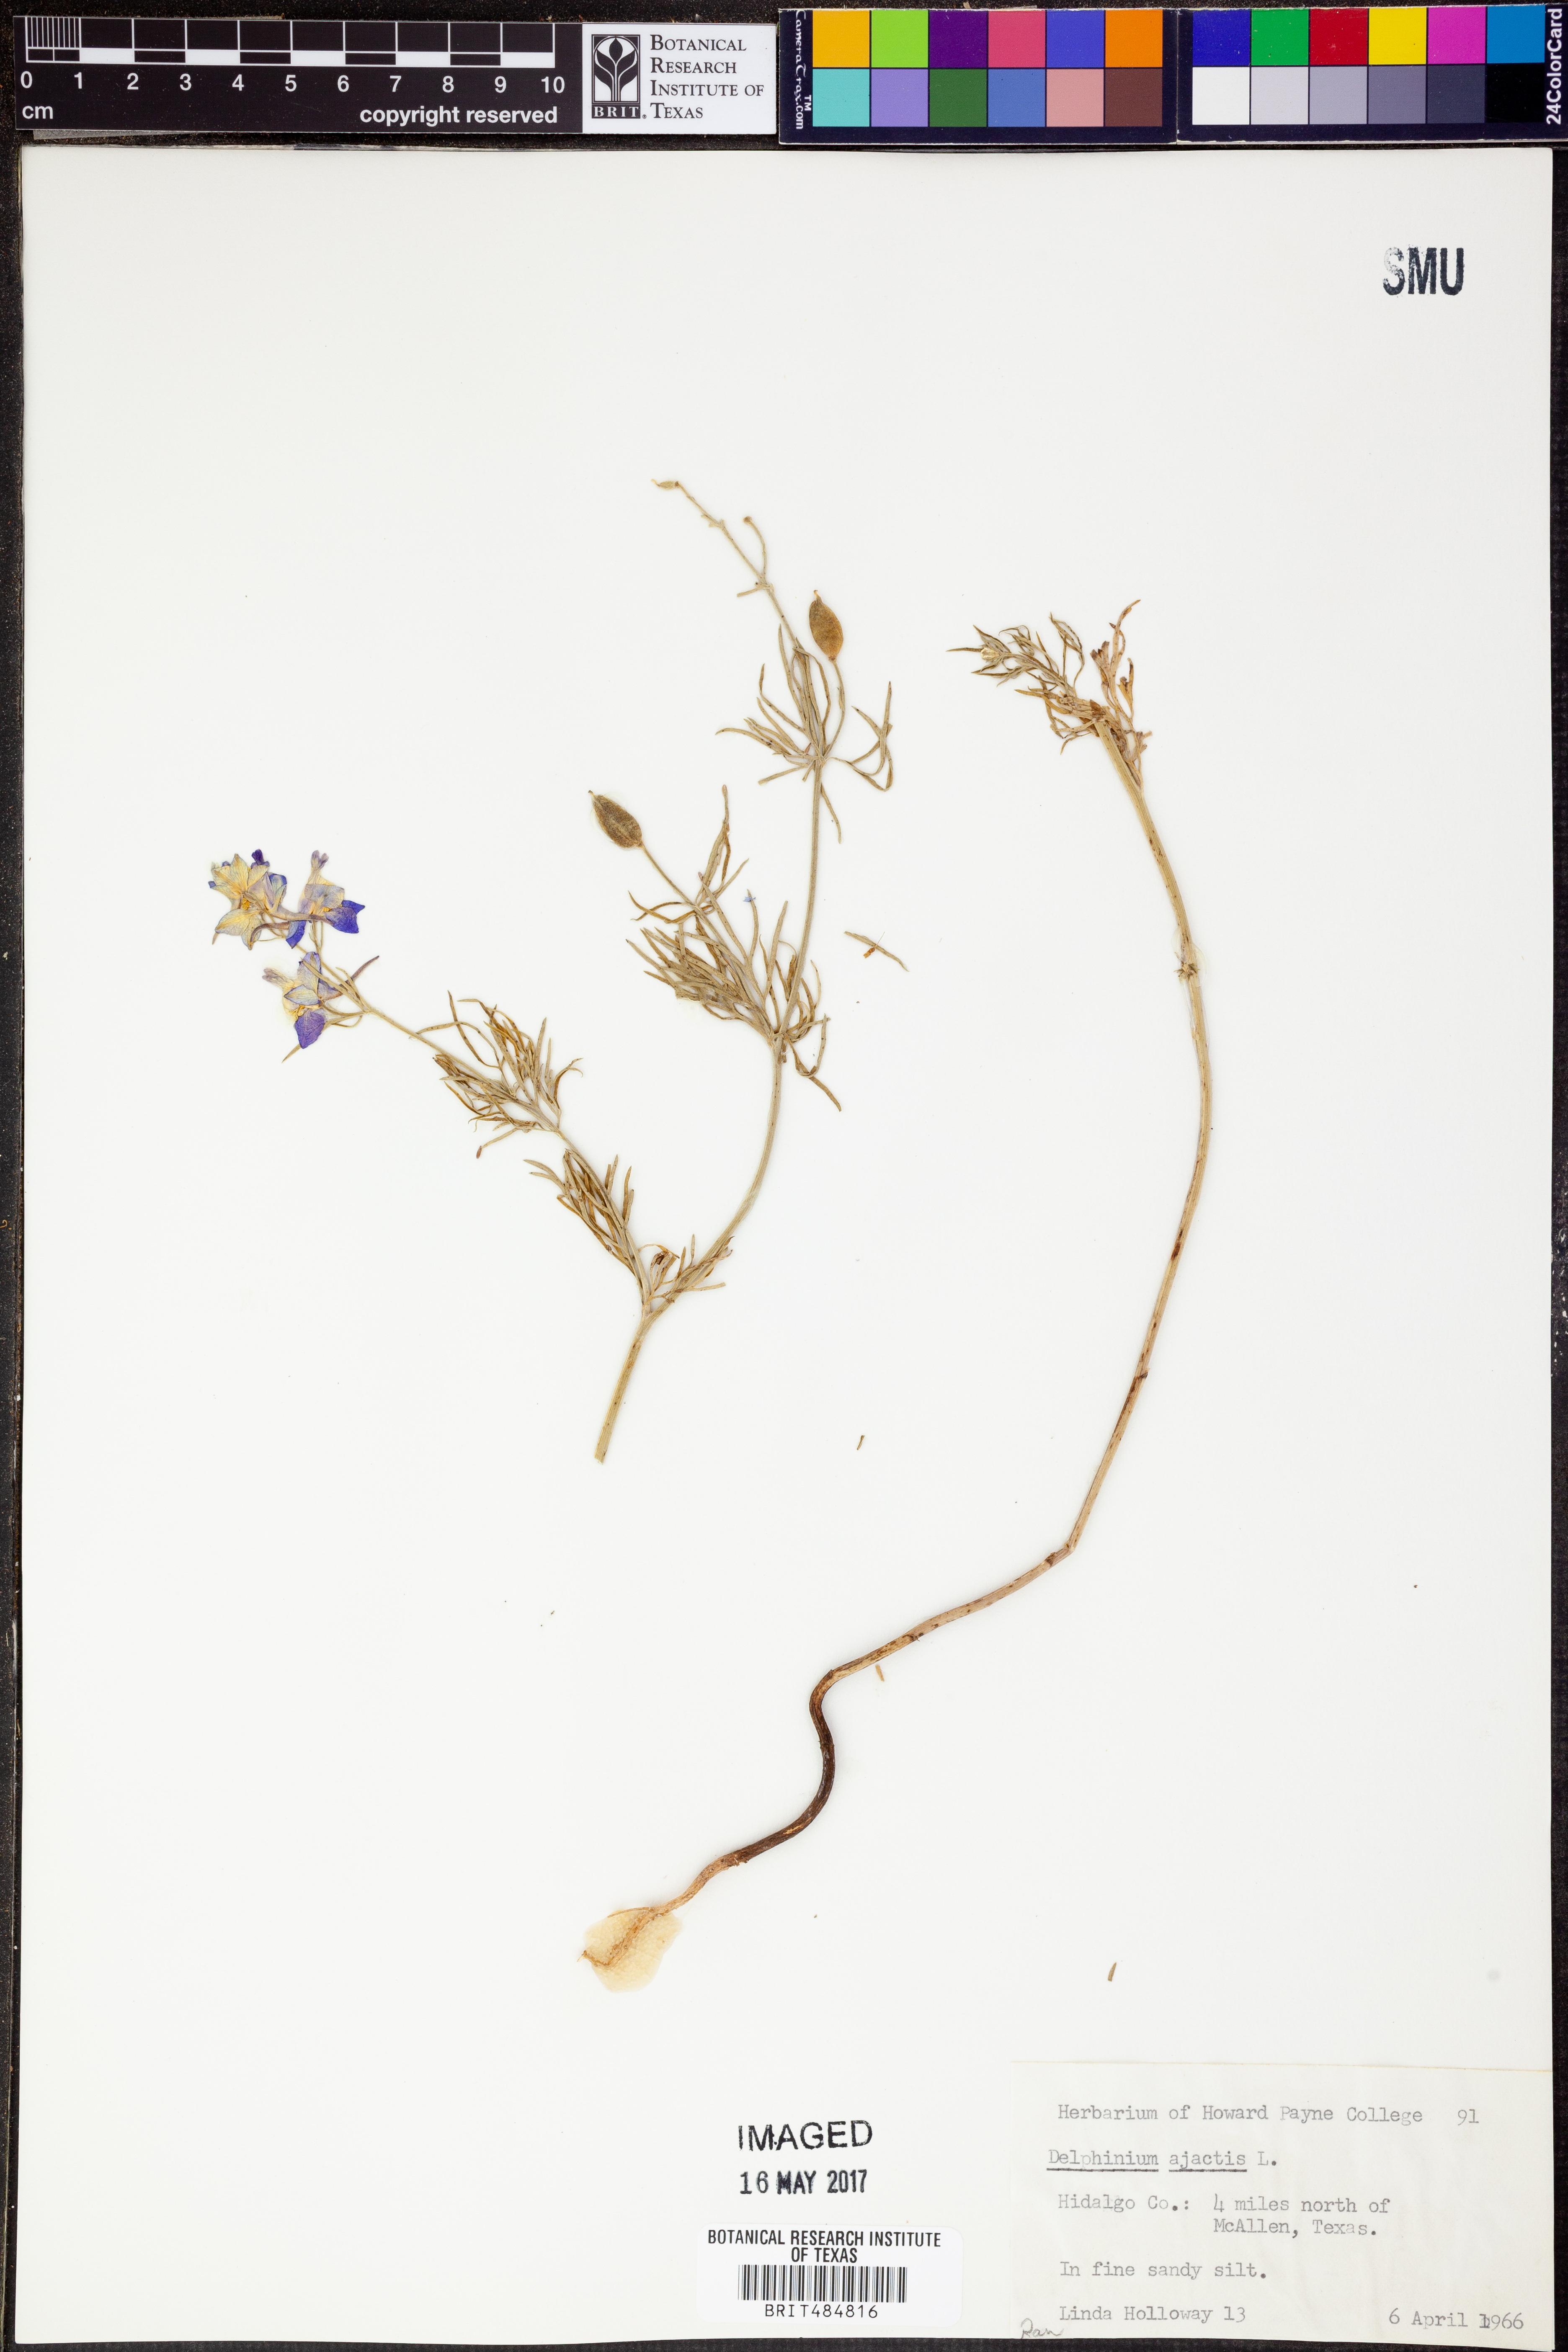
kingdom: Plantae
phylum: Tracheophyta
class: Magnoliopsida
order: Ranunculales
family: Ranunculaceae
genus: Delphinium
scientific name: Delphinium ajacis
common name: Doubtful knight's-spur
